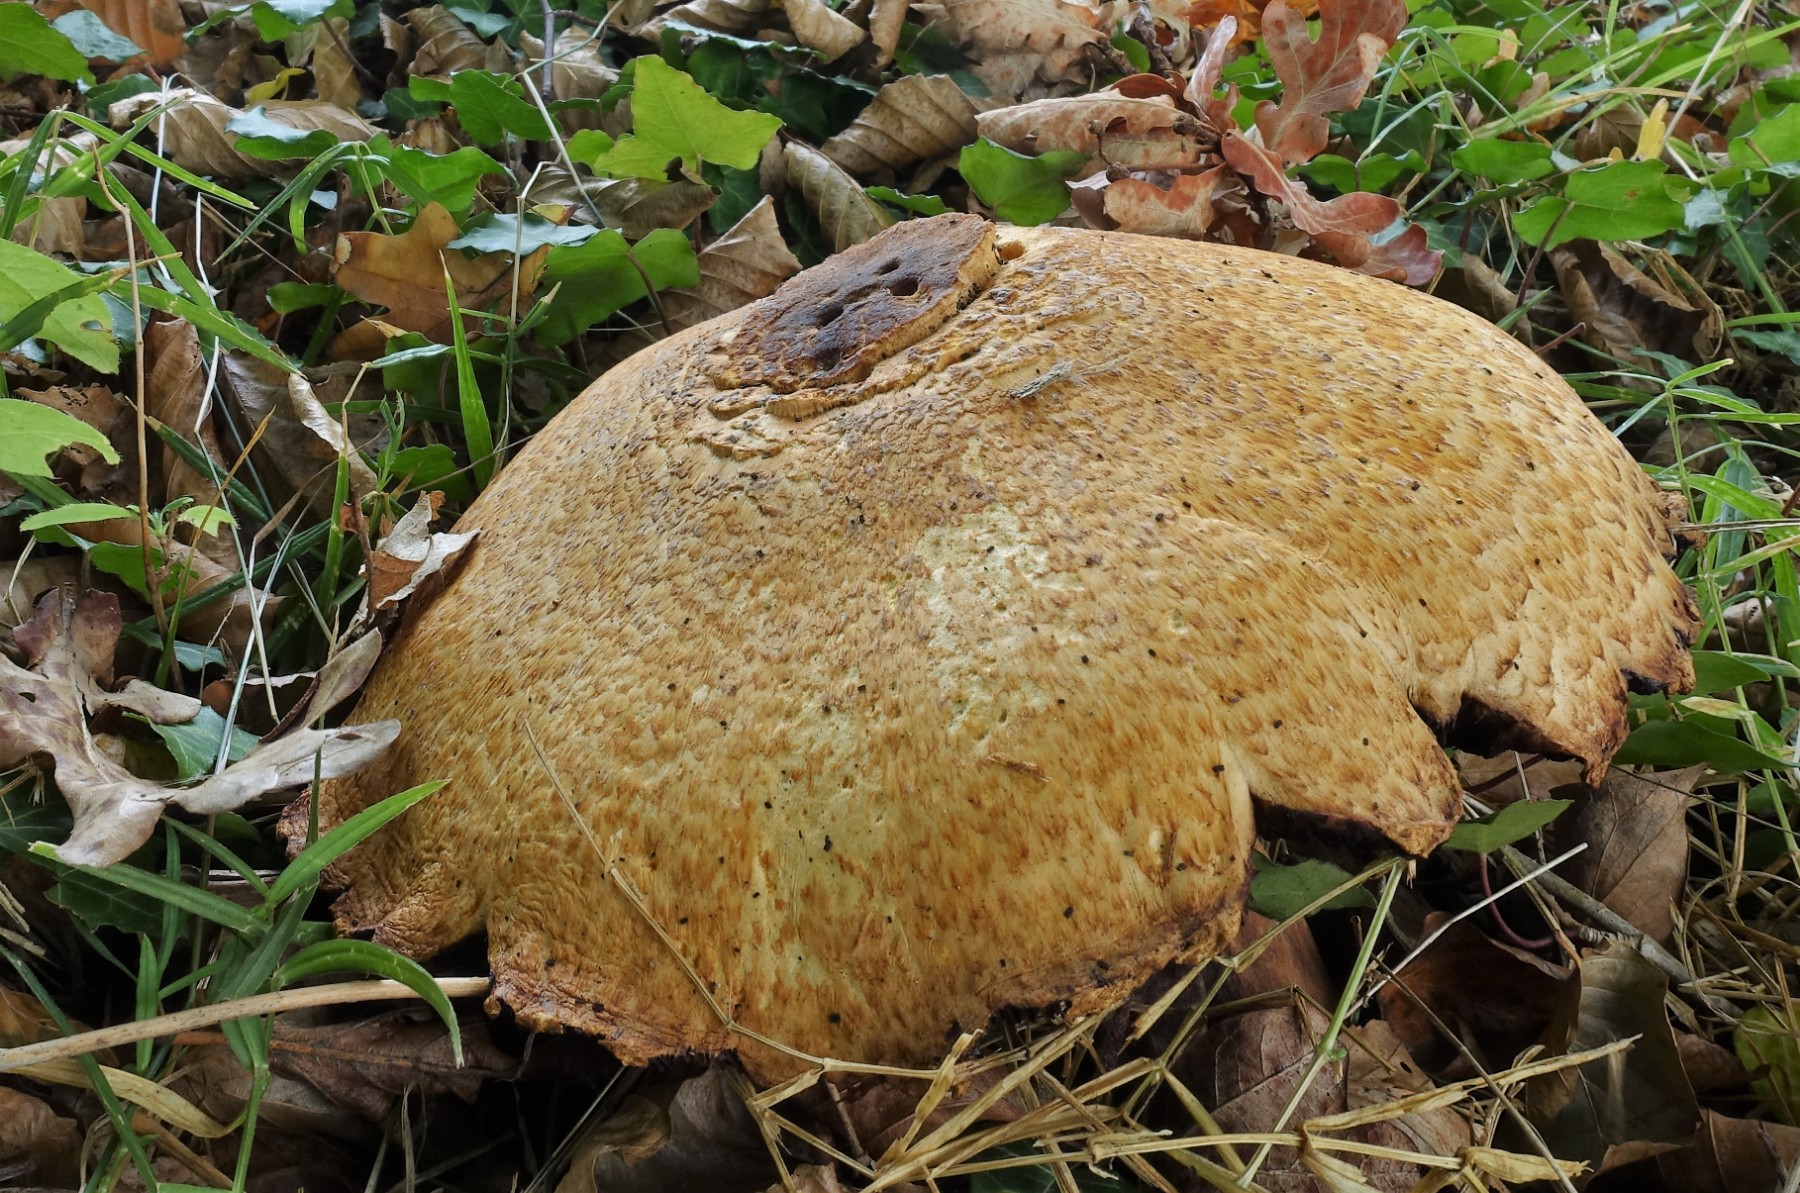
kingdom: Fungi
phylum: Basidiomycota
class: Agaricomycetes
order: Agaricales
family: Agaricaceae
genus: Agaricus
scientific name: Agaricus augustus
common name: prægtig champignon
